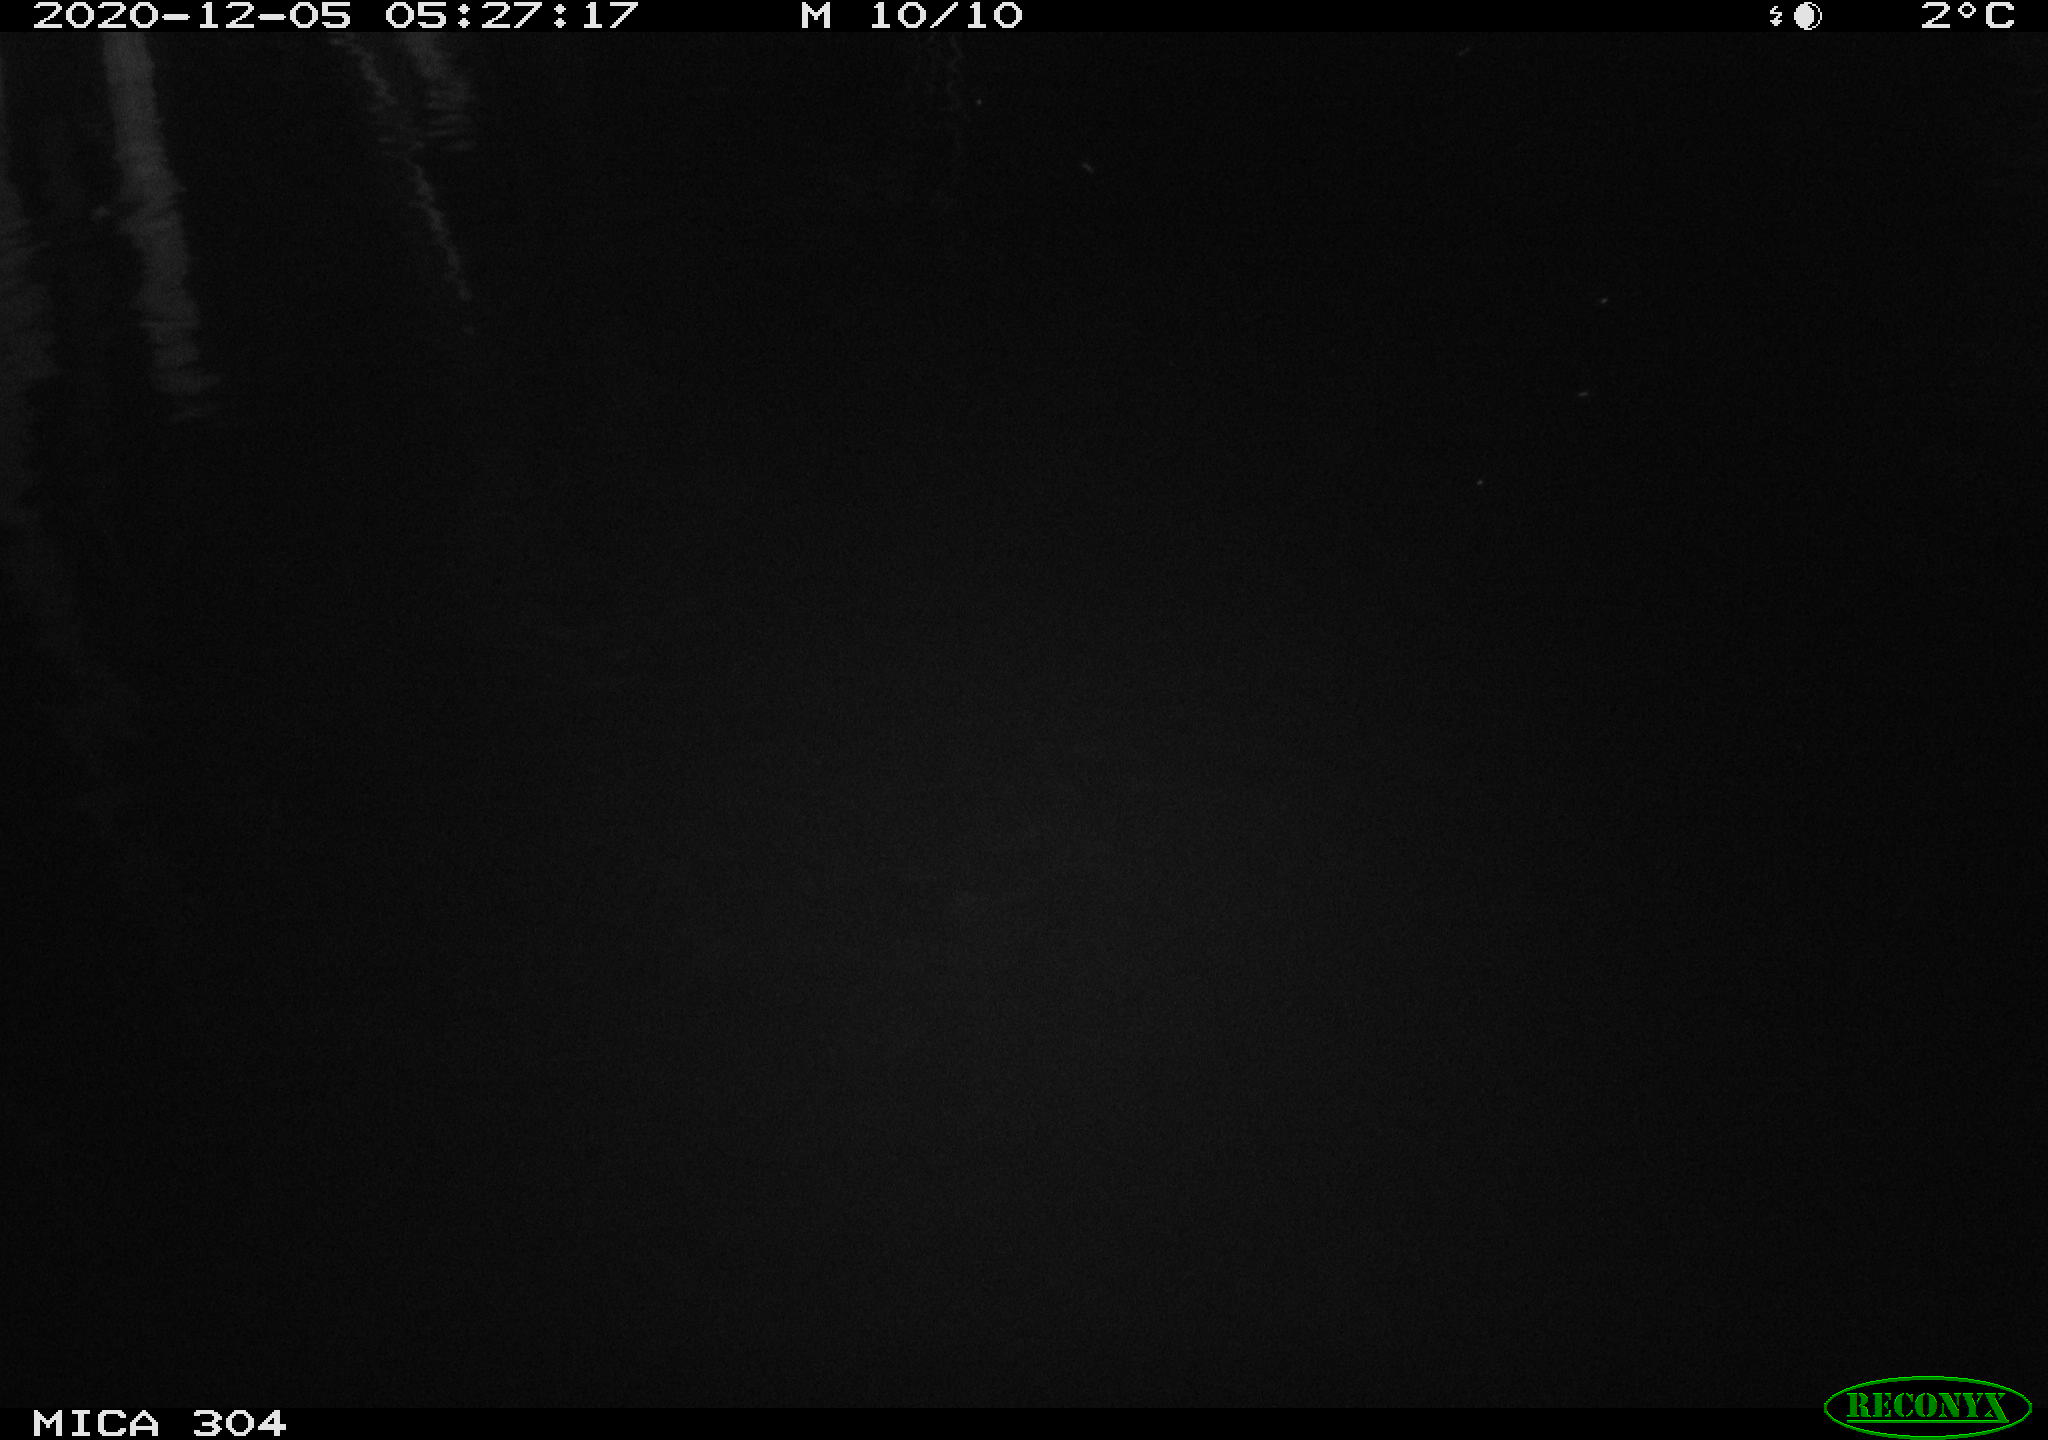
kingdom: Animalia
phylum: Chordata
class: Mammalia
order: Rodentia
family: Muridae
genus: Rattus
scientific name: Rattus norvegicus
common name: Brown rat
